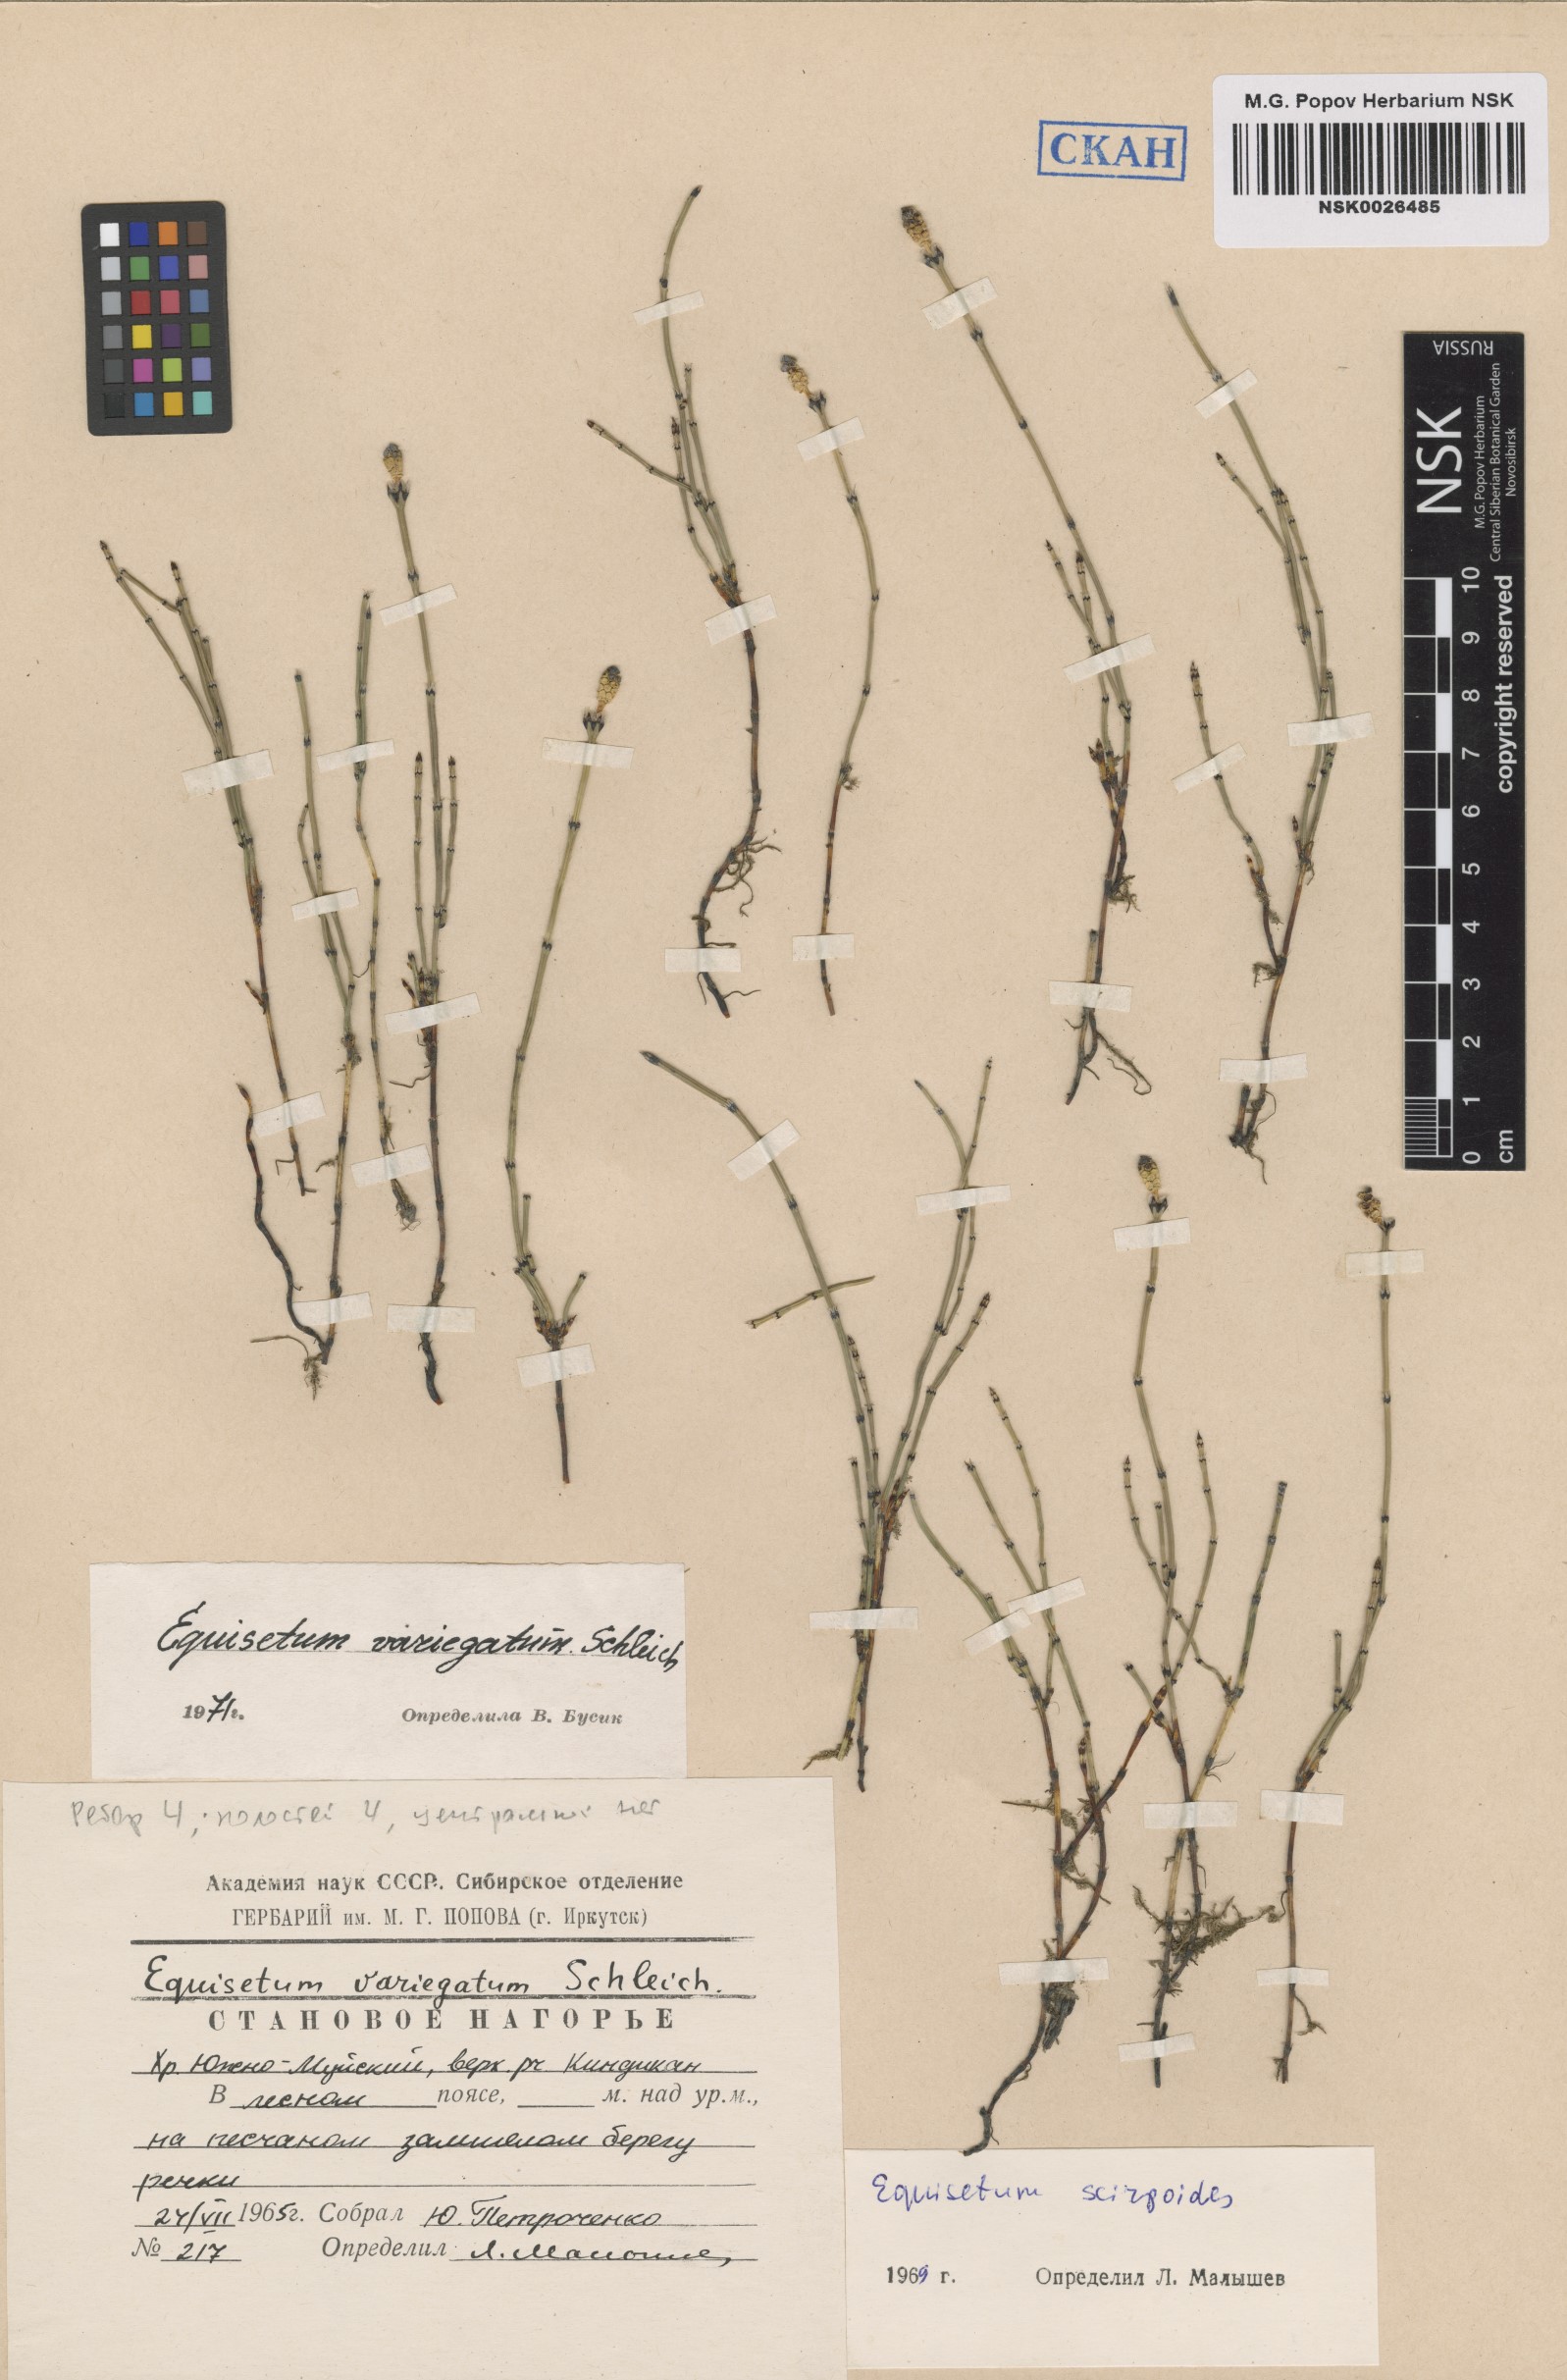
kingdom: Plantae
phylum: Tracheophyta
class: Polypodiopsida
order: Equisetales
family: Equisetaceae
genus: Equisetum
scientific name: Equisetum variegatum
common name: Variegated horsetail
